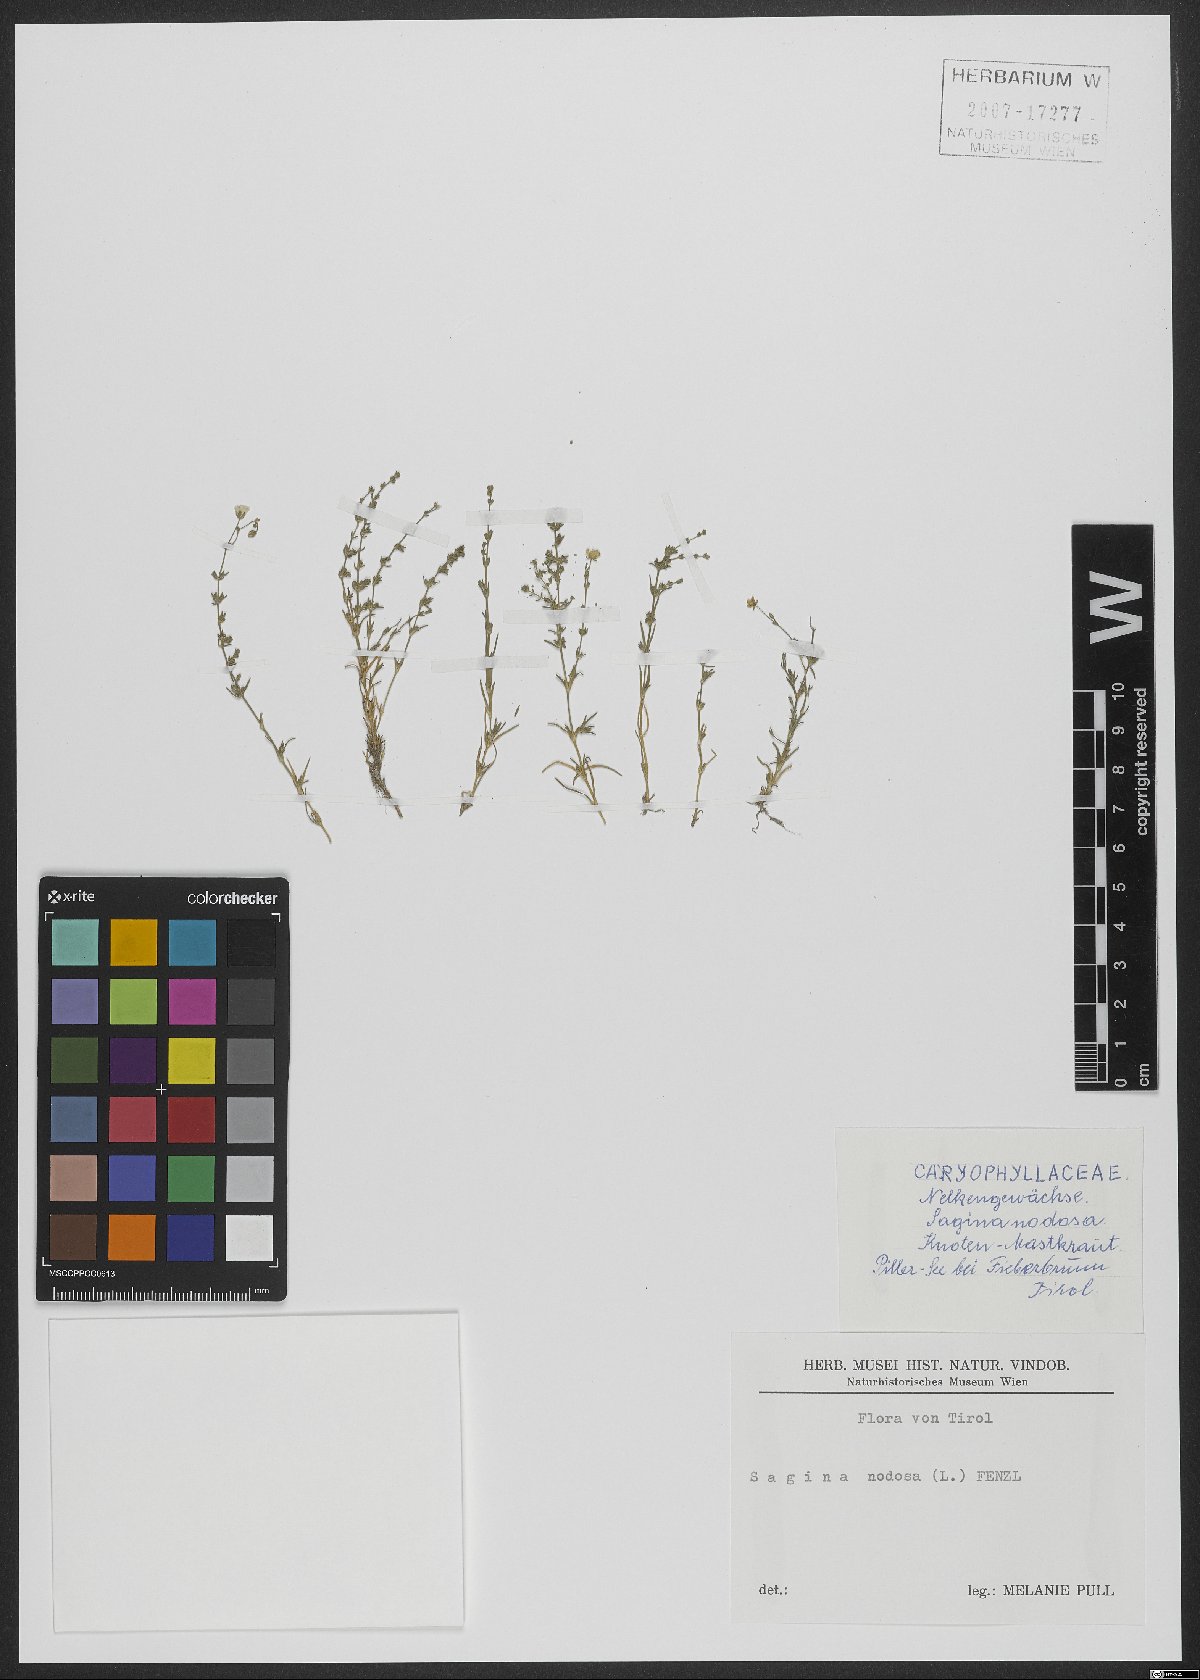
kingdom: Plantae
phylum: Tracheophyta
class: Magnoliopsida
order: Caryophyllales
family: Caryophyllaceae
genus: Sagina
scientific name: Sagina nodosa
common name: Knotted pearlwort
